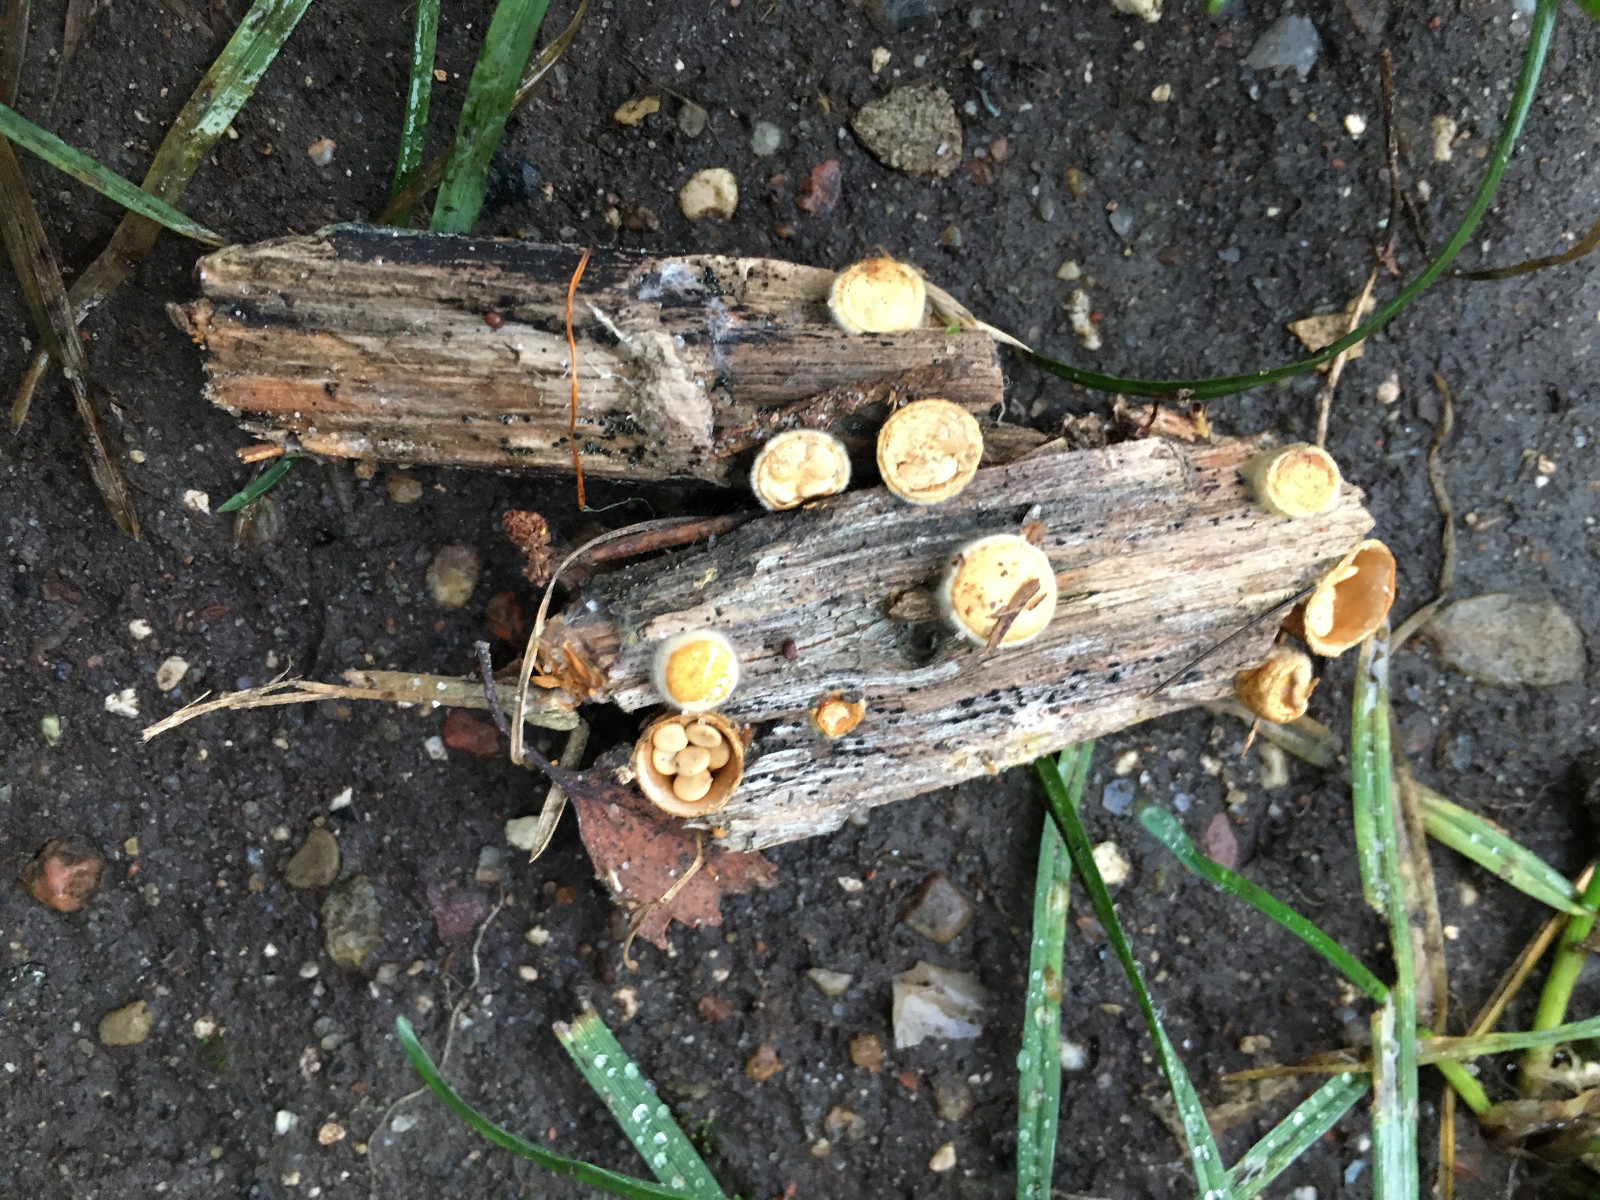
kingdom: Fungi
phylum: Basidiomycota
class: Agaricomycetes
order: Agaricales
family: Nidulariaceae
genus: Crucibulum
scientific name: Crucibulum crucibuliforme
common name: krukkesvamp
